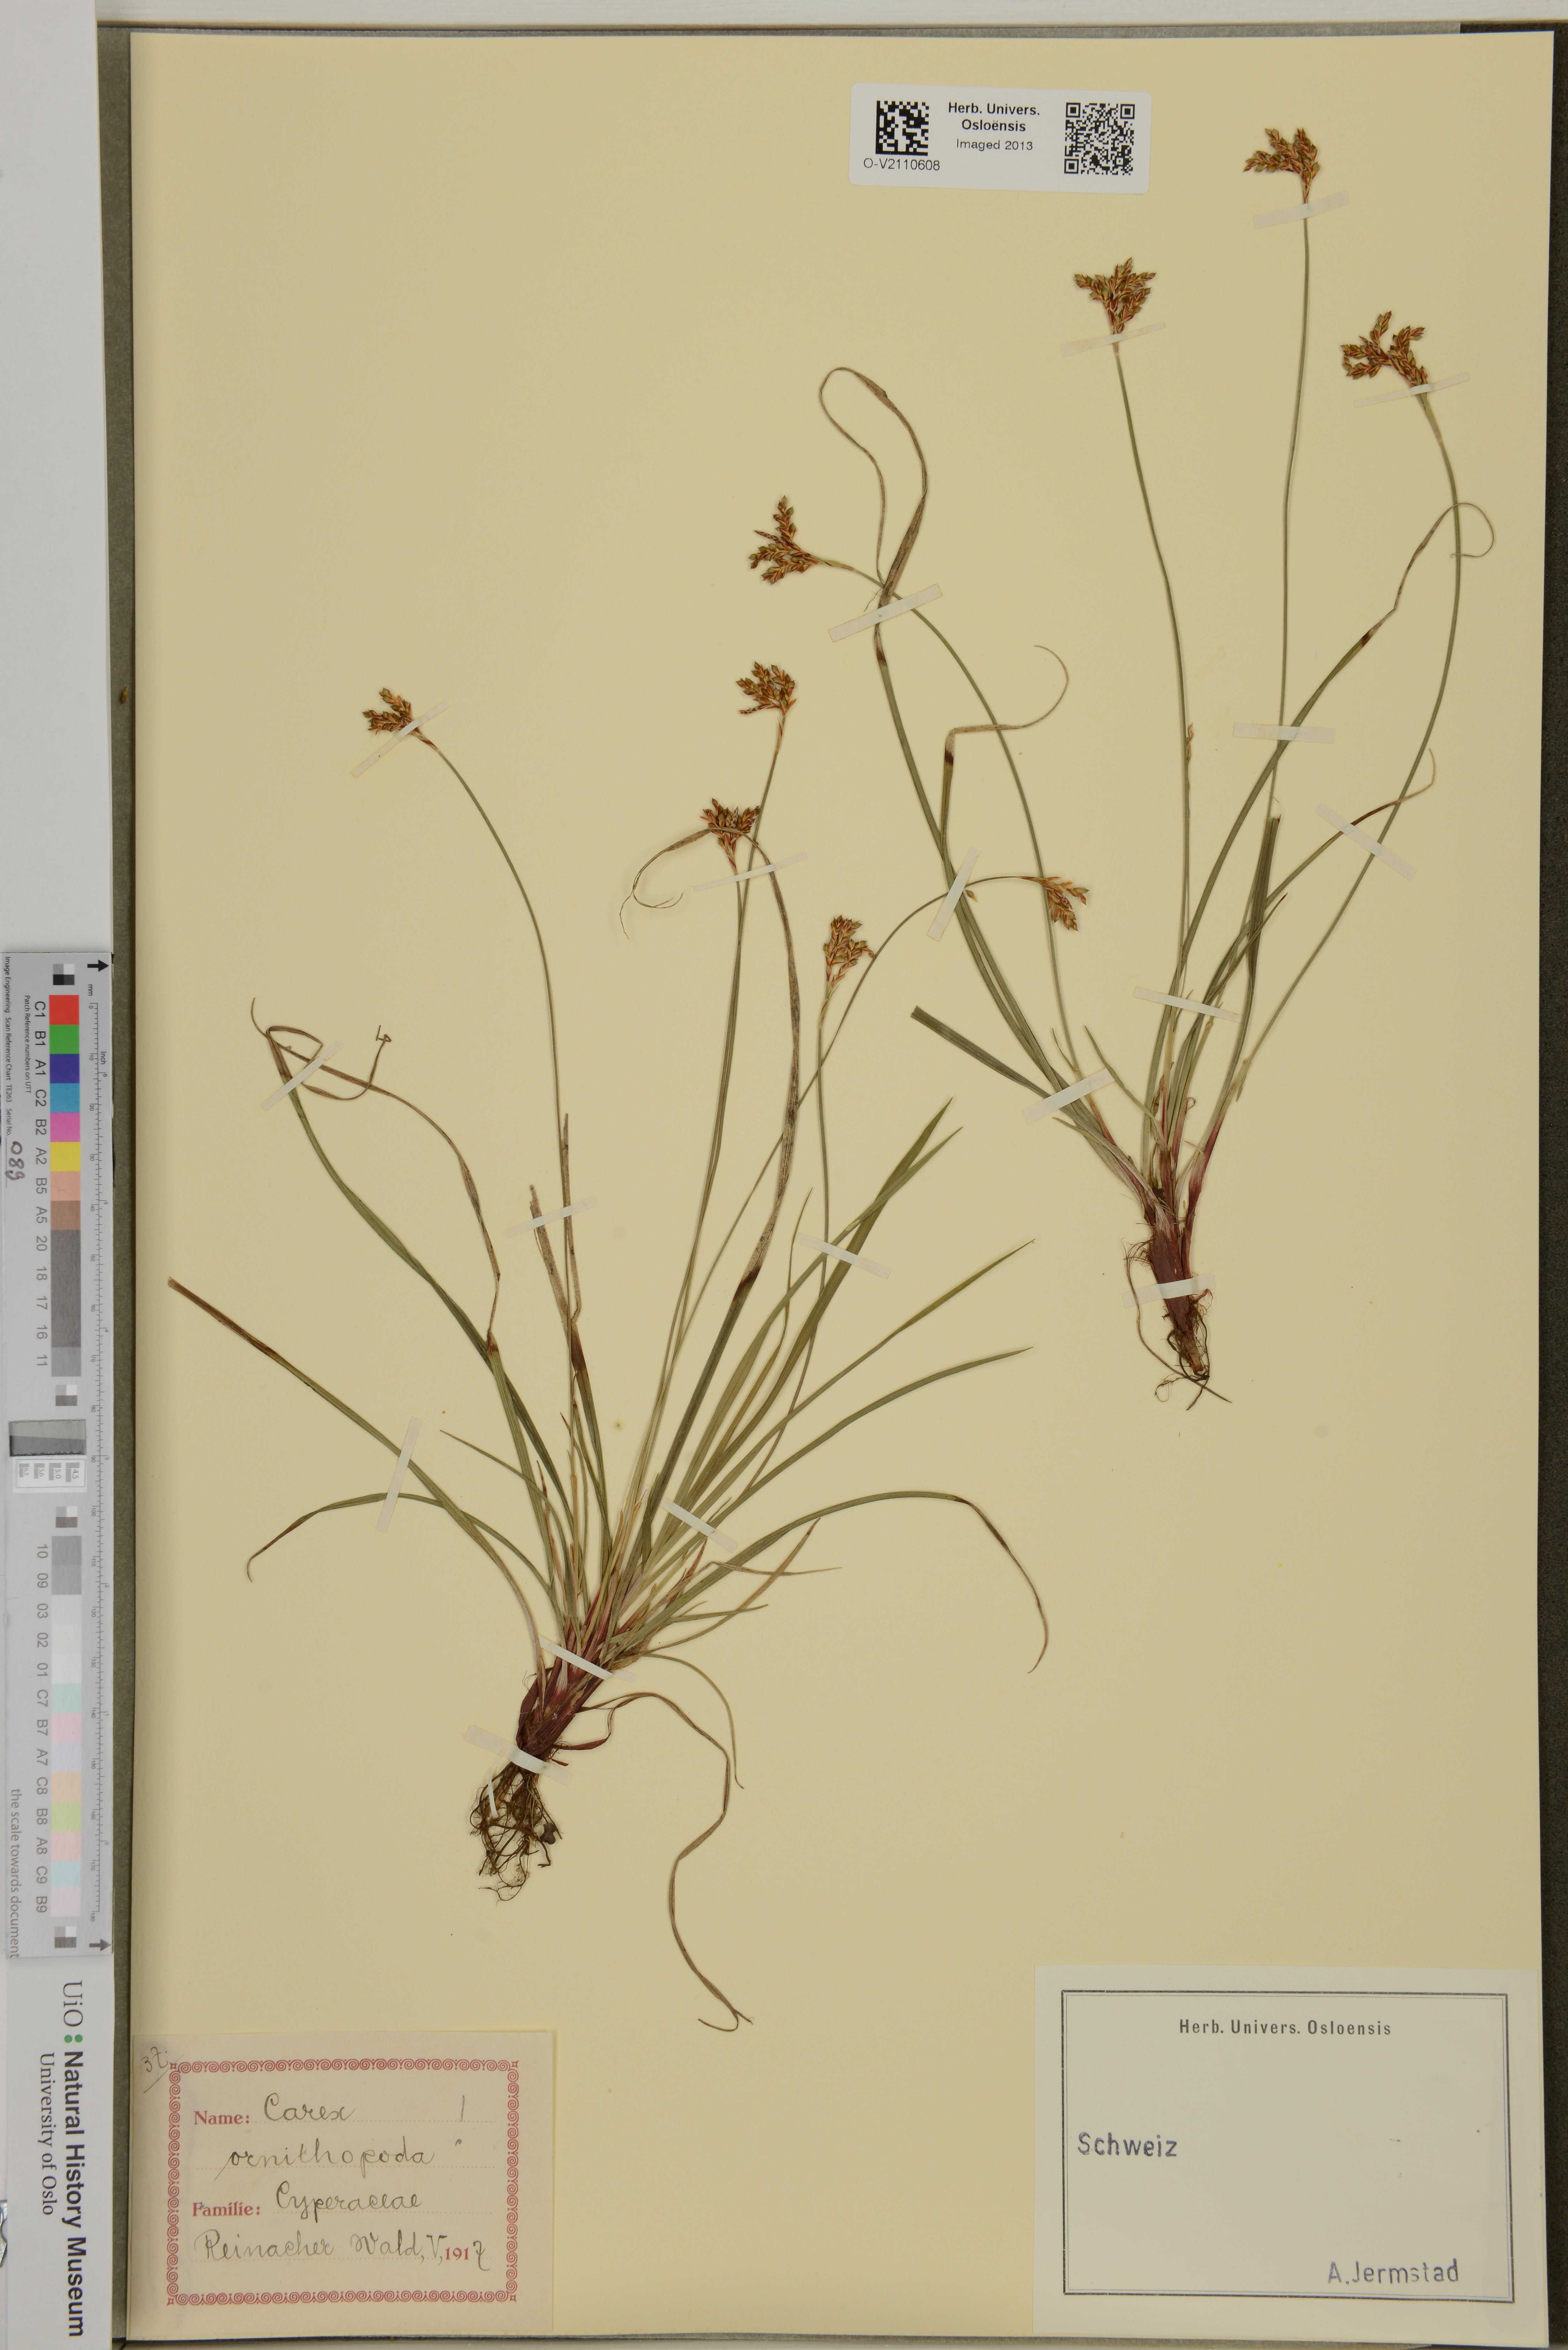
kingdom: Plantae
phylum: Tracheophyta
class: Liliopsida
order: Poales
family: Cyperaceae
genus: Carex
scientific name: Carex ornithopoda
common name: Bird's-foot sedge
